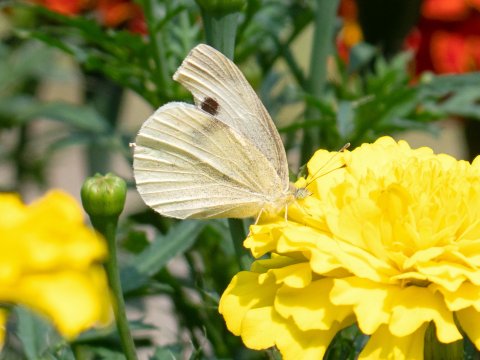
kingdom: Animalia
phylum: Arthropoda
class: Insecta
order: Lepidoptera
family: Pieridae
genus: Pieris
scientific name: Pieris rapae
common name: Cabbage White
